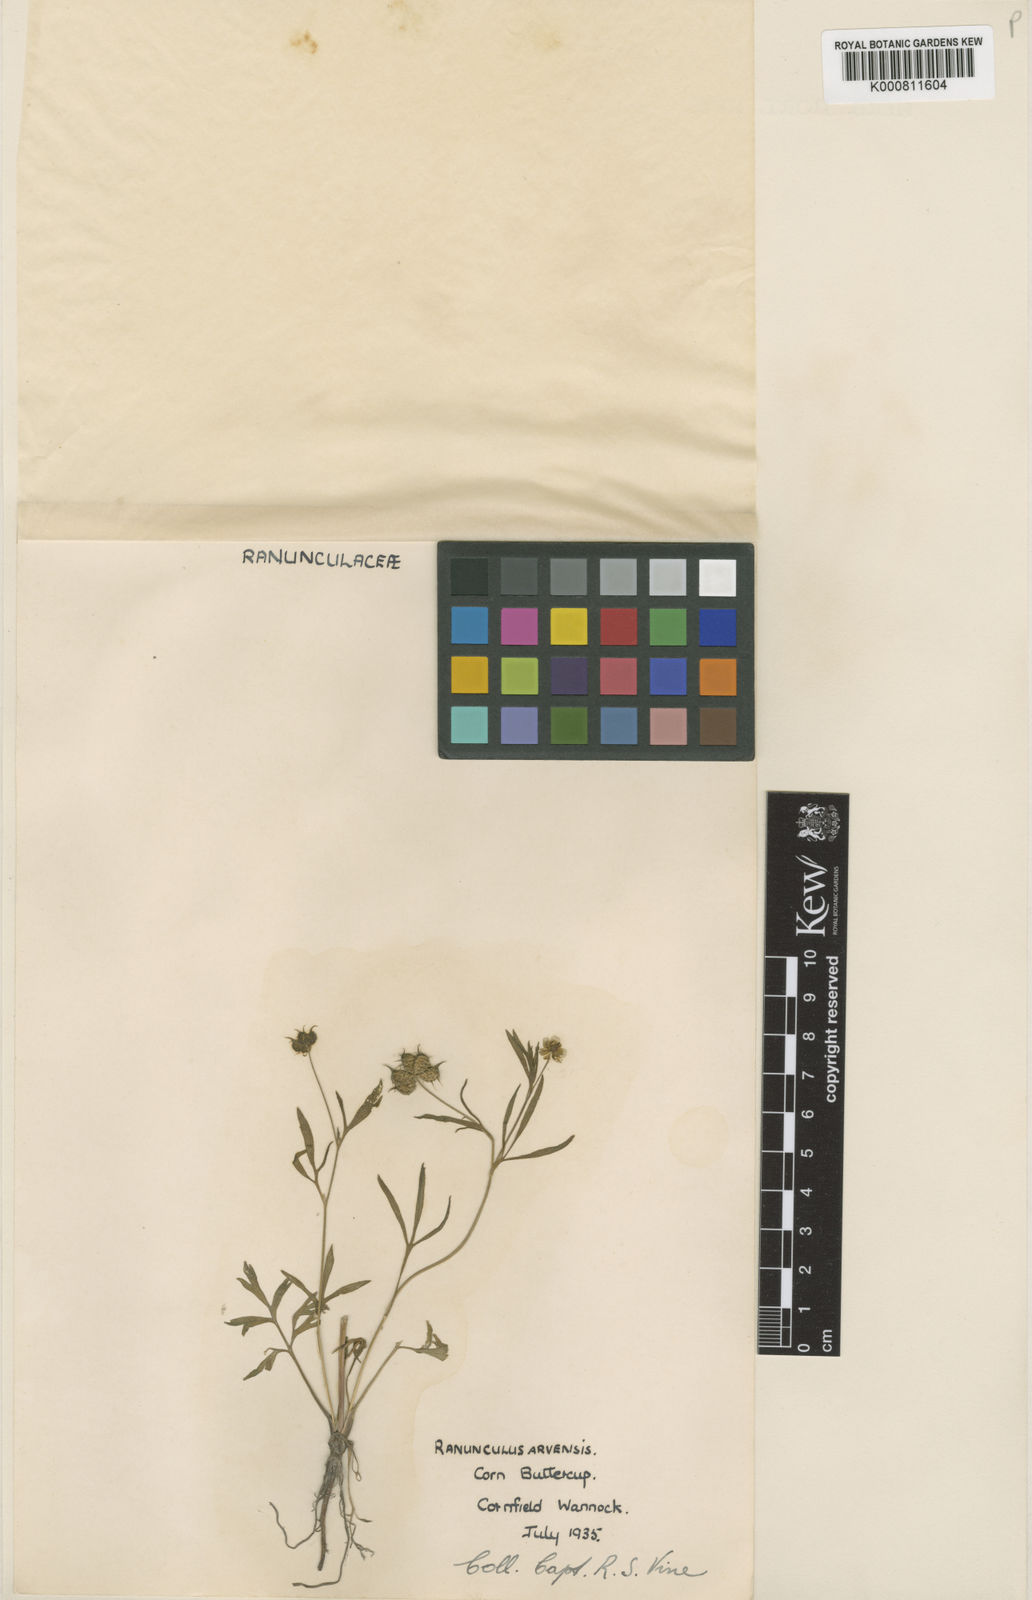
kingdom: Plantae
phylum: Tracheophyta
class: Magnoliopsida
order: Ranunculales
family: Ranunculaceae
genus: Ranunculus
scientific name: Ranunculus arvensis
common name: Corn buttercup
